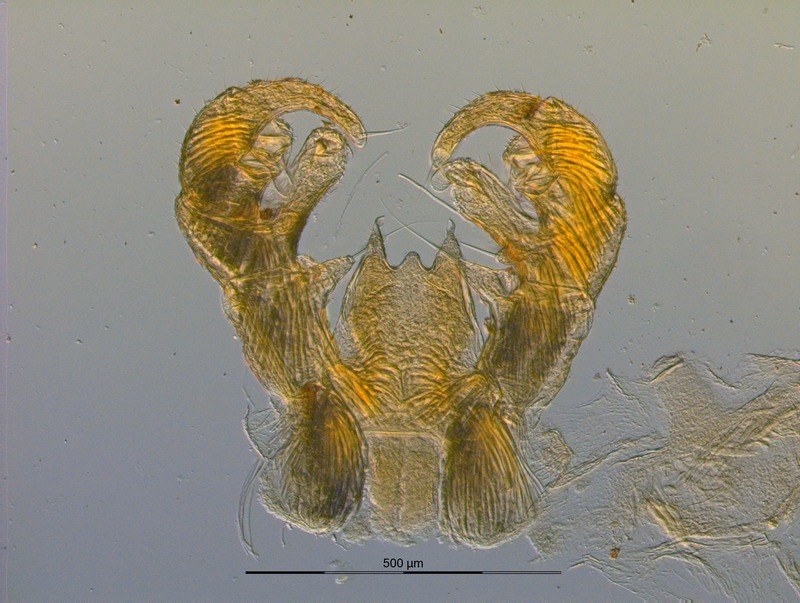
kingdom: Animalia
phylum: Arthropoda
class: Diplopoda
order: Glomerida
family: Glomeridae
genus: Strasseria
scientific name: Strasseria mirabilis
